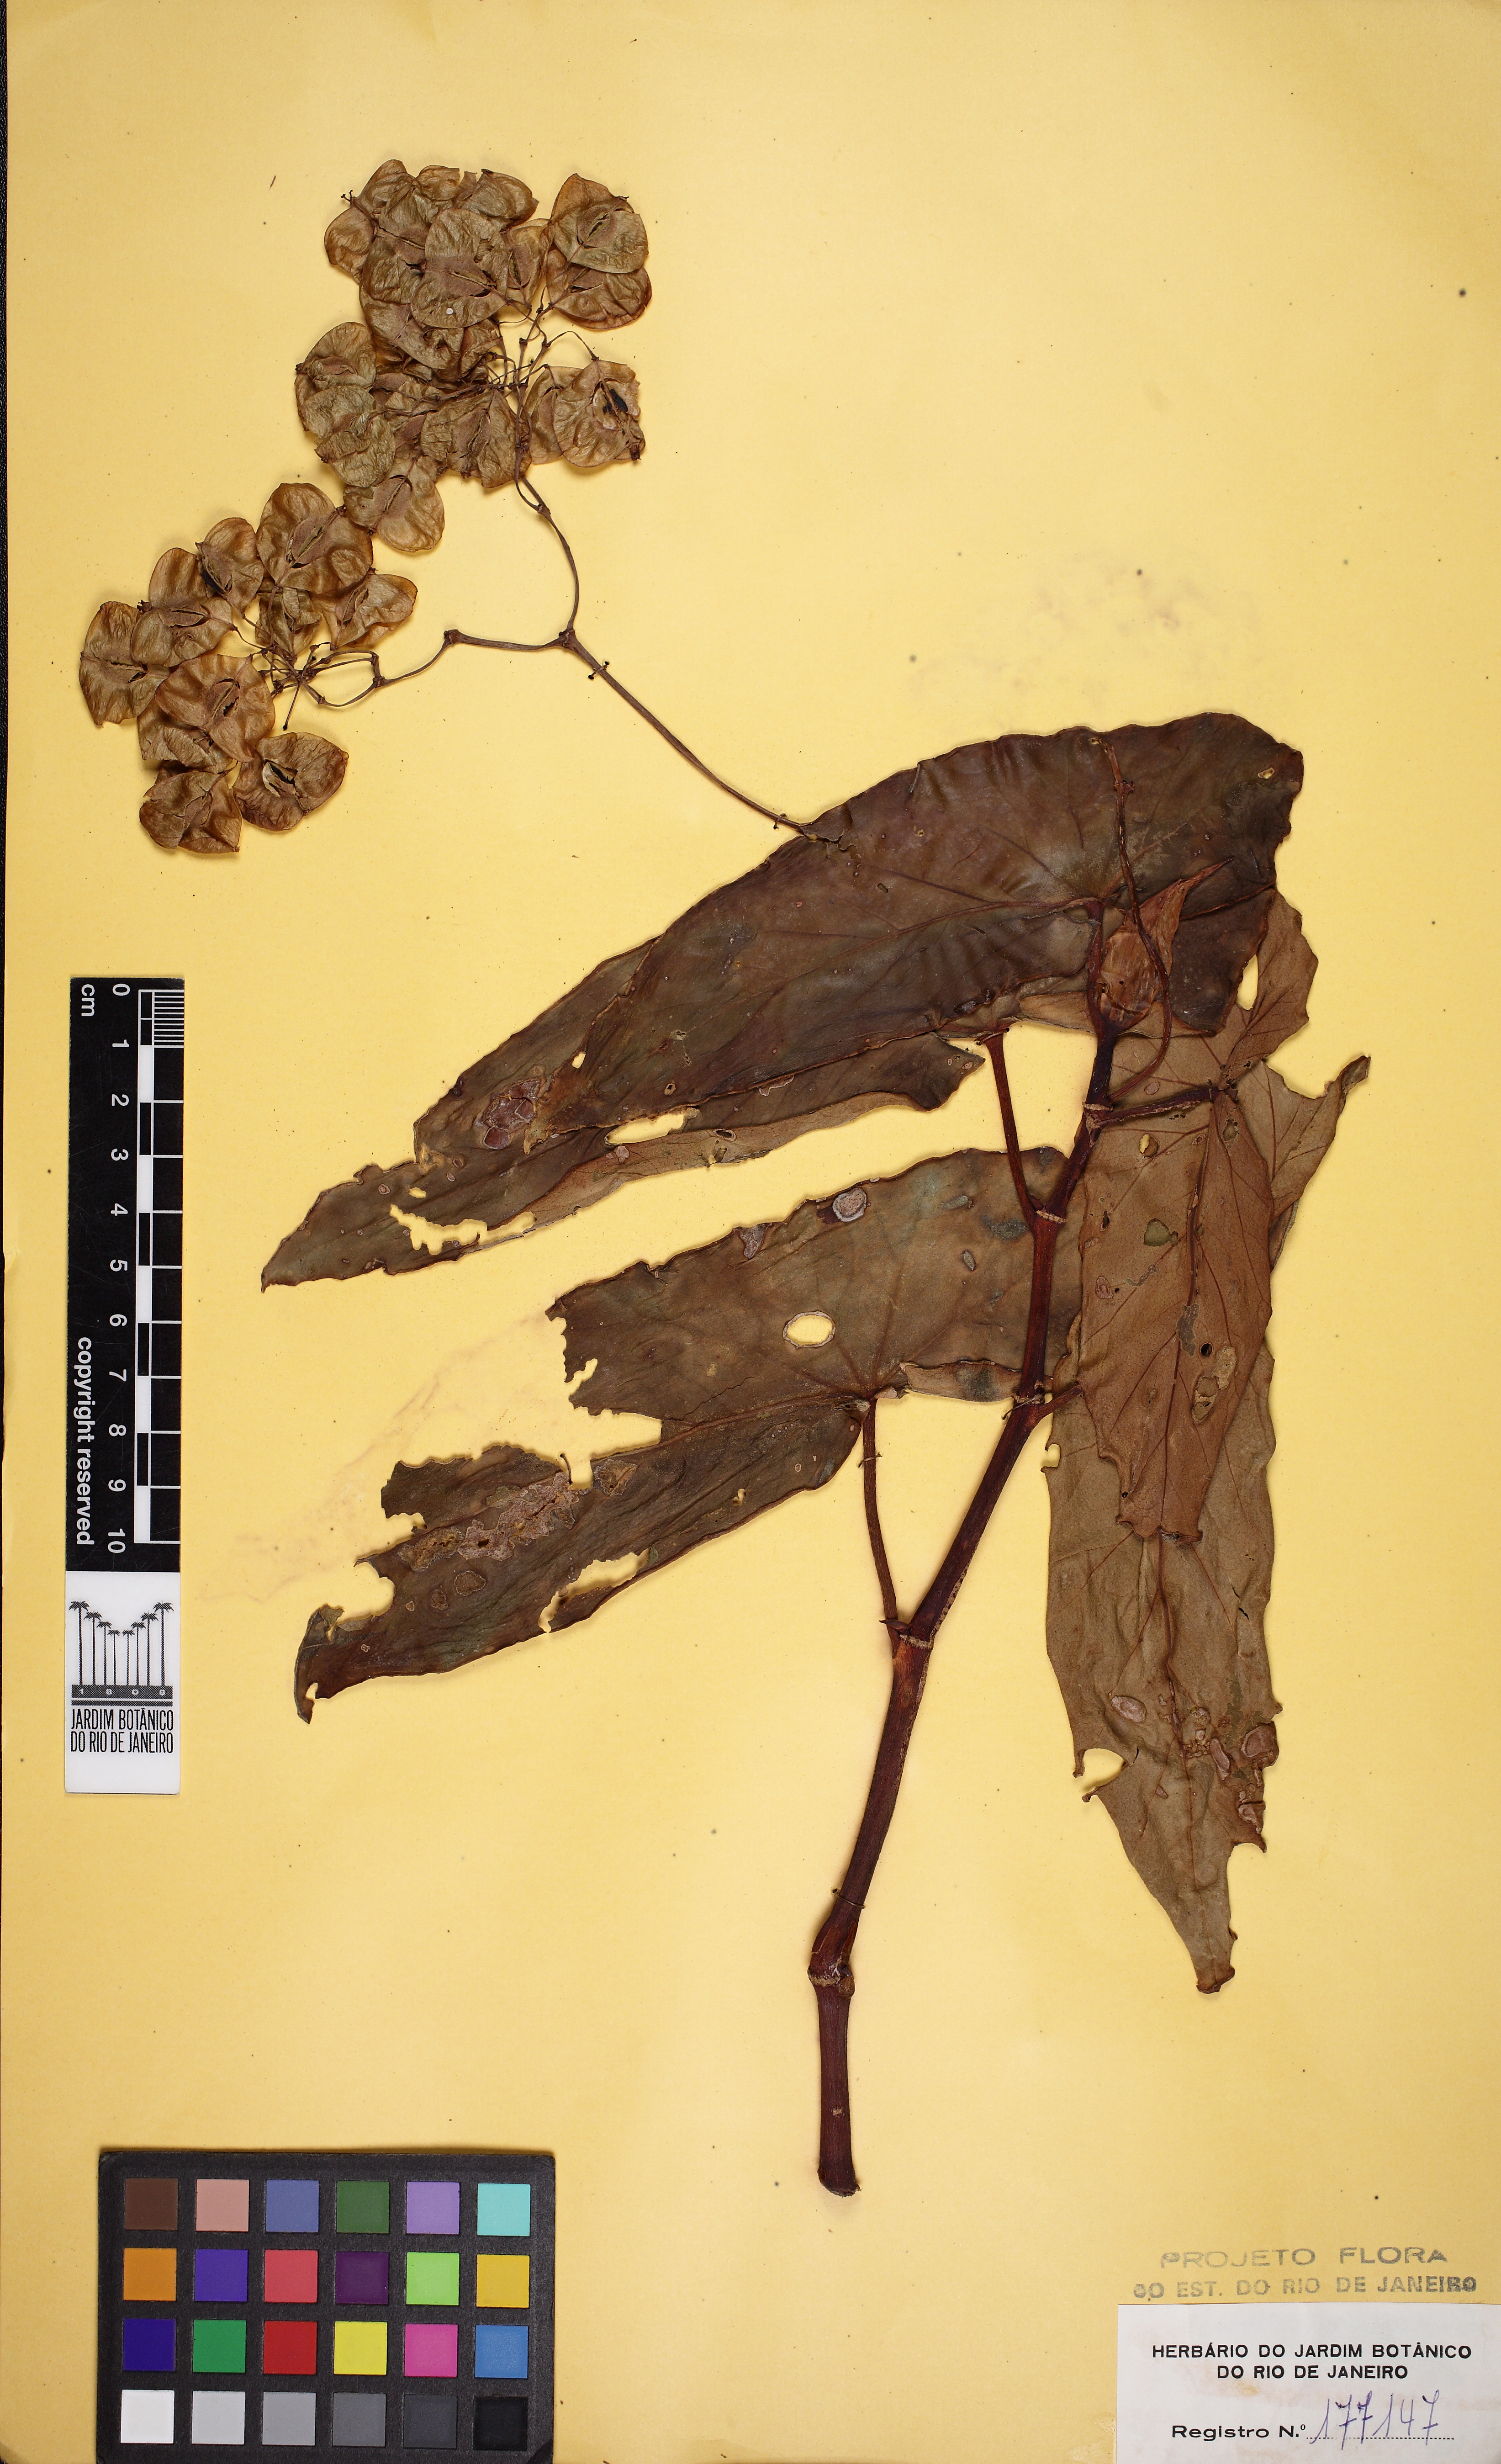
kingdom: Plantae
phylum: Tracheophyta
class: Magnoliopsida
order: Cucurbitales
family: Begoniaceae
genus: Begonia
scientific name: Begonia maculata
